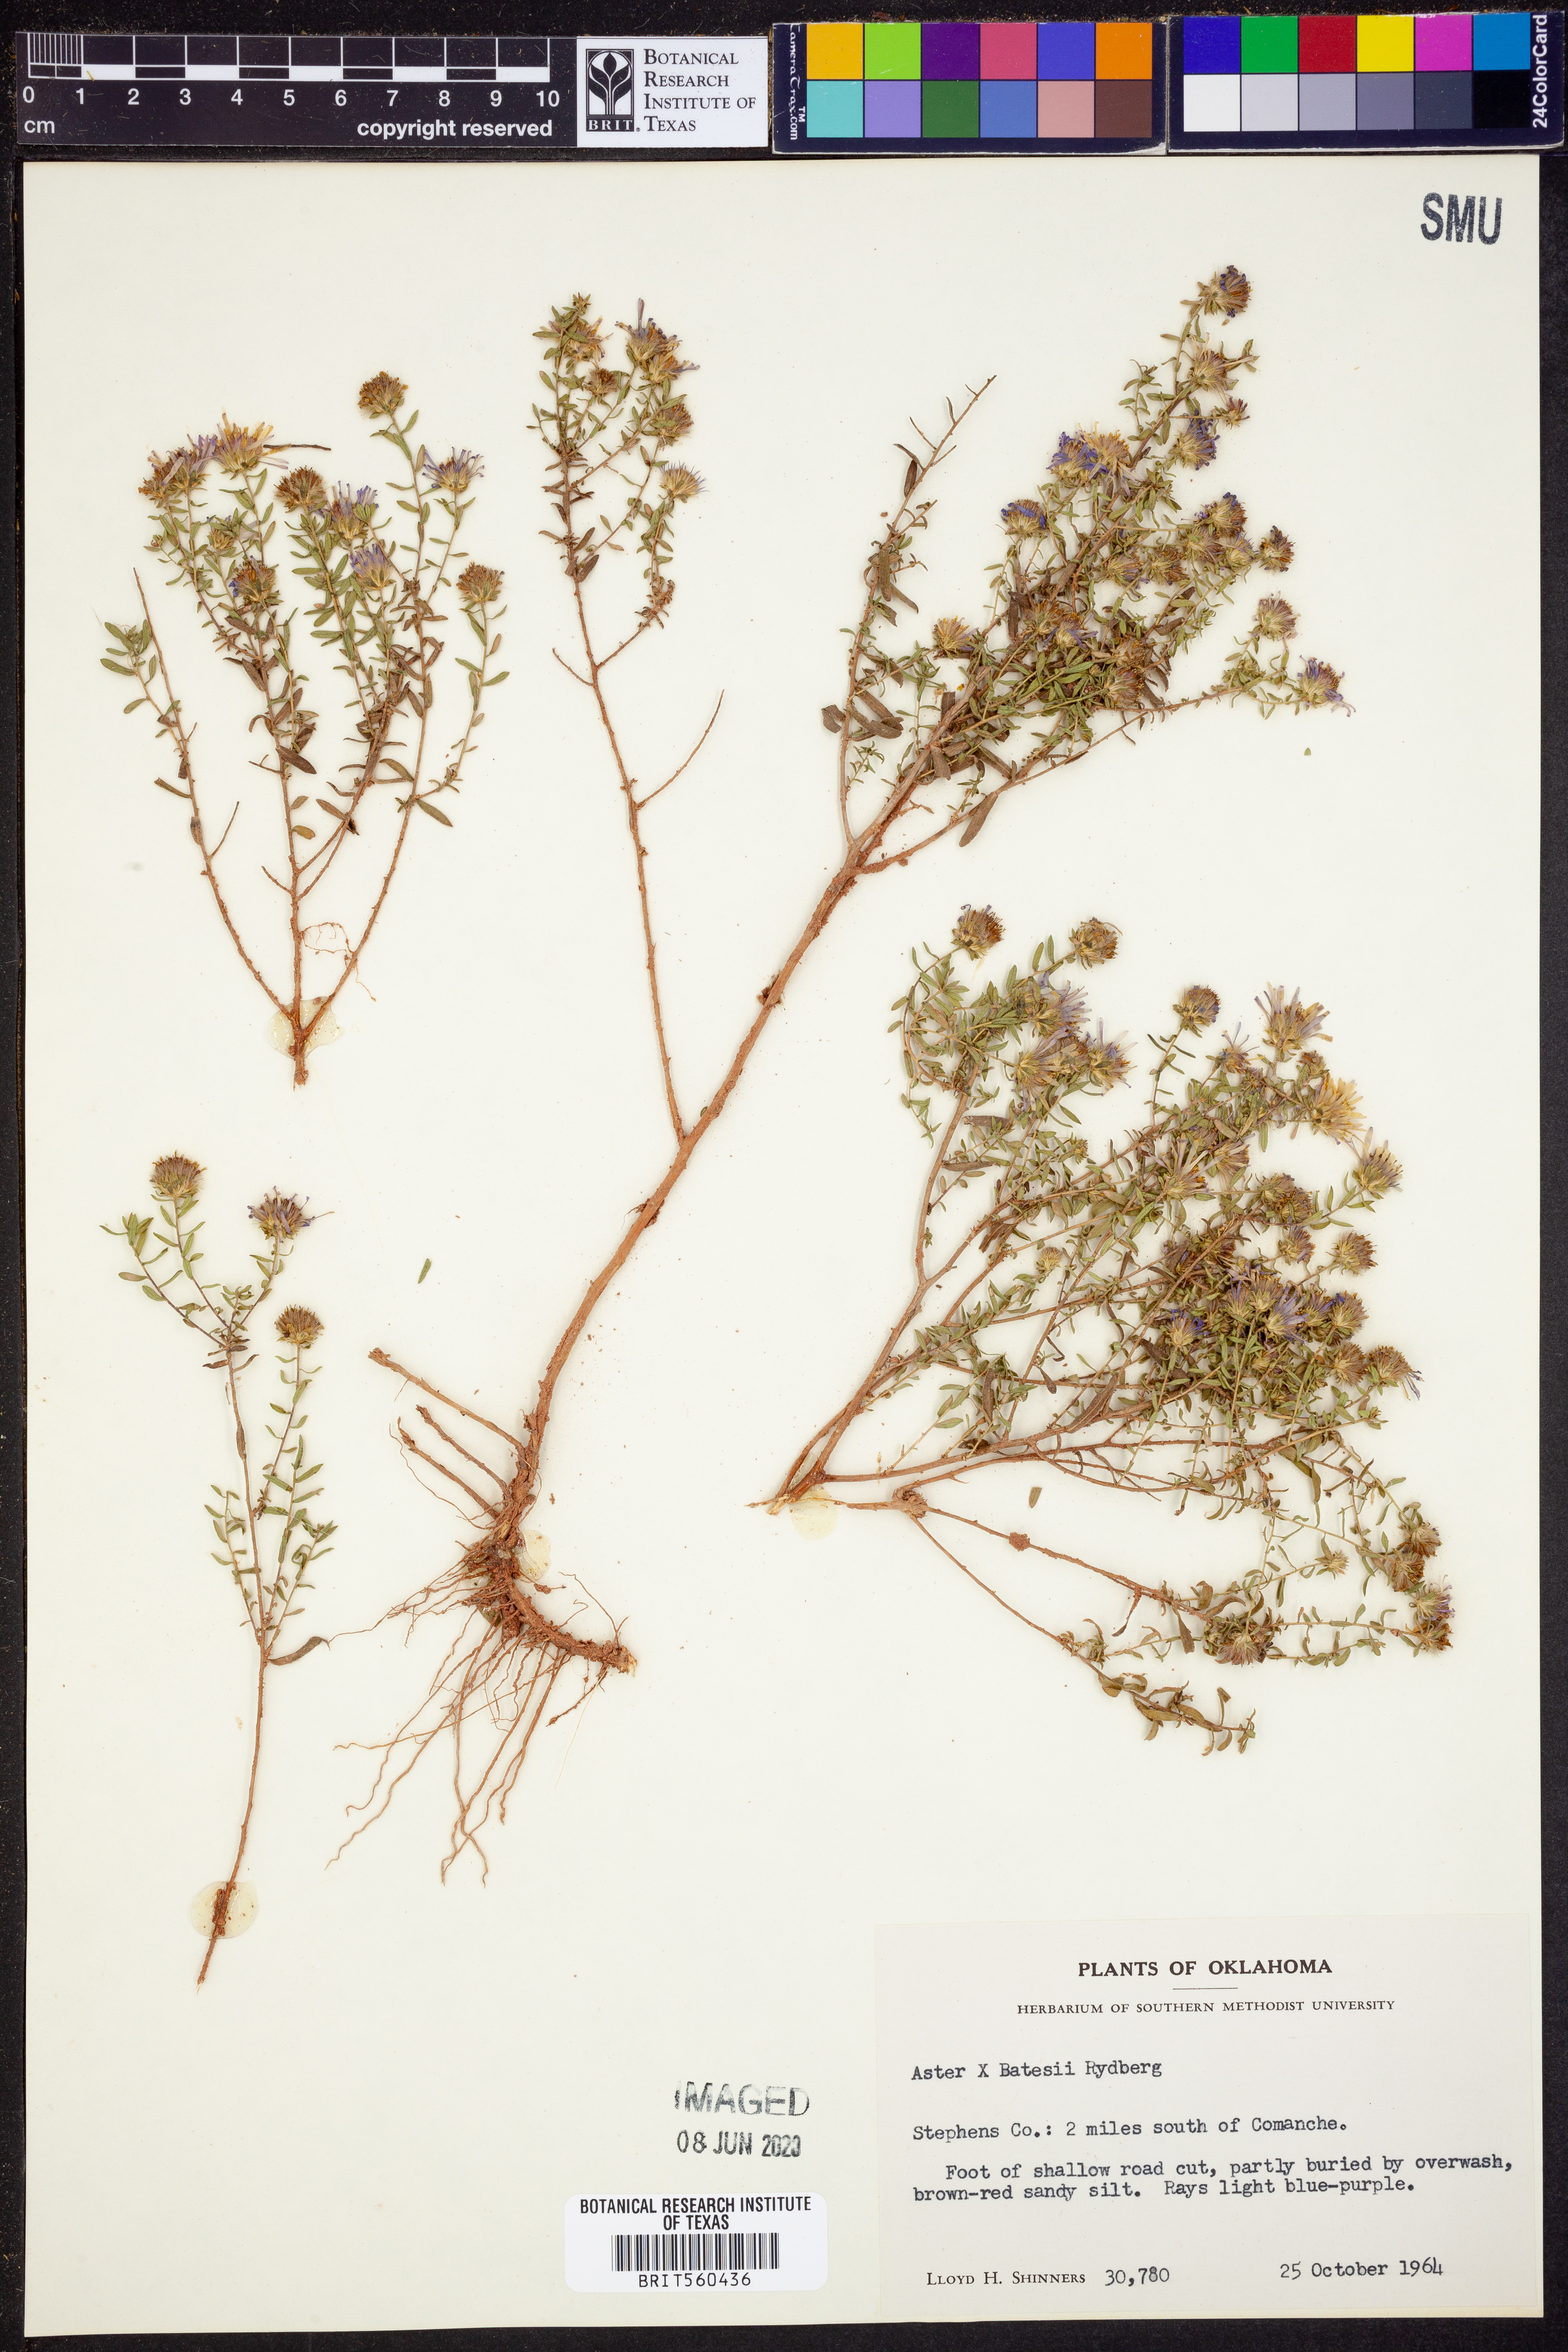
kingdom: Plantae
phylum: Tracheophyta
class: Magnoliopsida
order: Asterales
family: Asteraceae
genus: Symphyotrichum
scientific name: Symphyotrichum batesii
